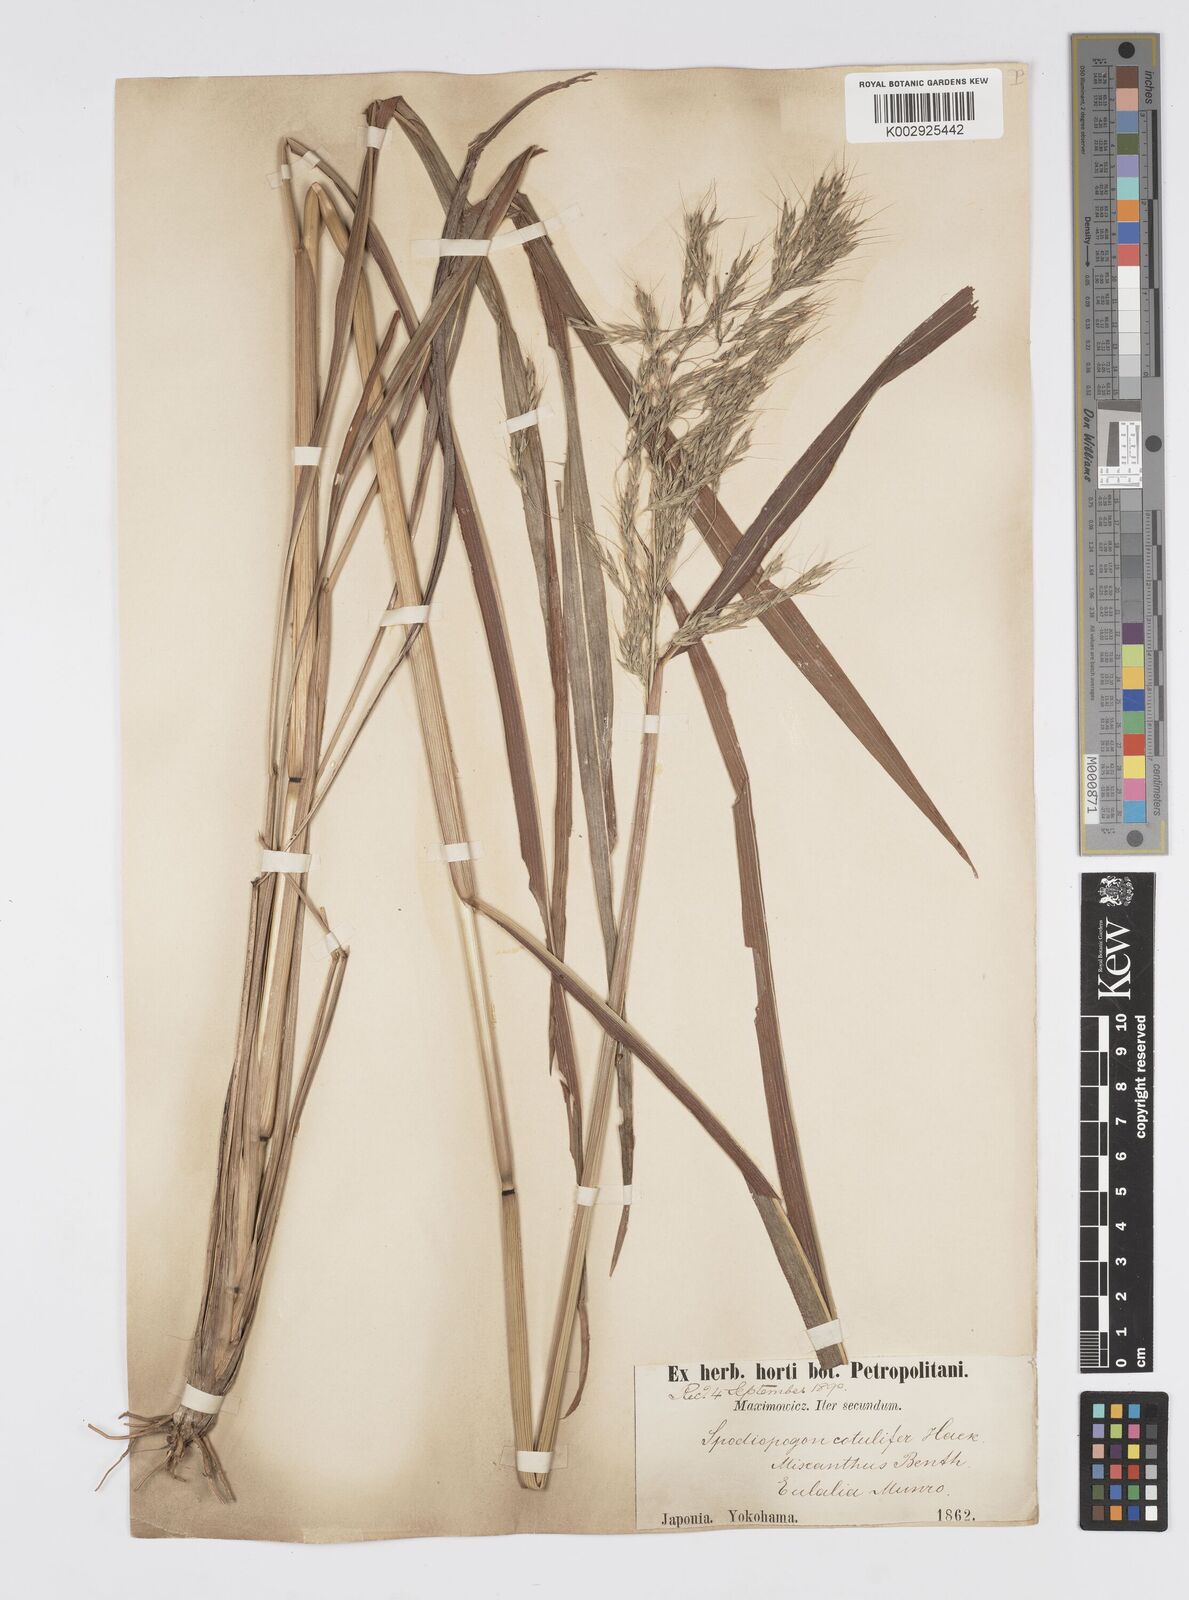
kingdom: Plantae
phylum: Tracheophyta
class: Liliopsida
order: Poales
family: Poaceae
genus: Spodiopogon
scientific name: Spodiopogon cotulifer
